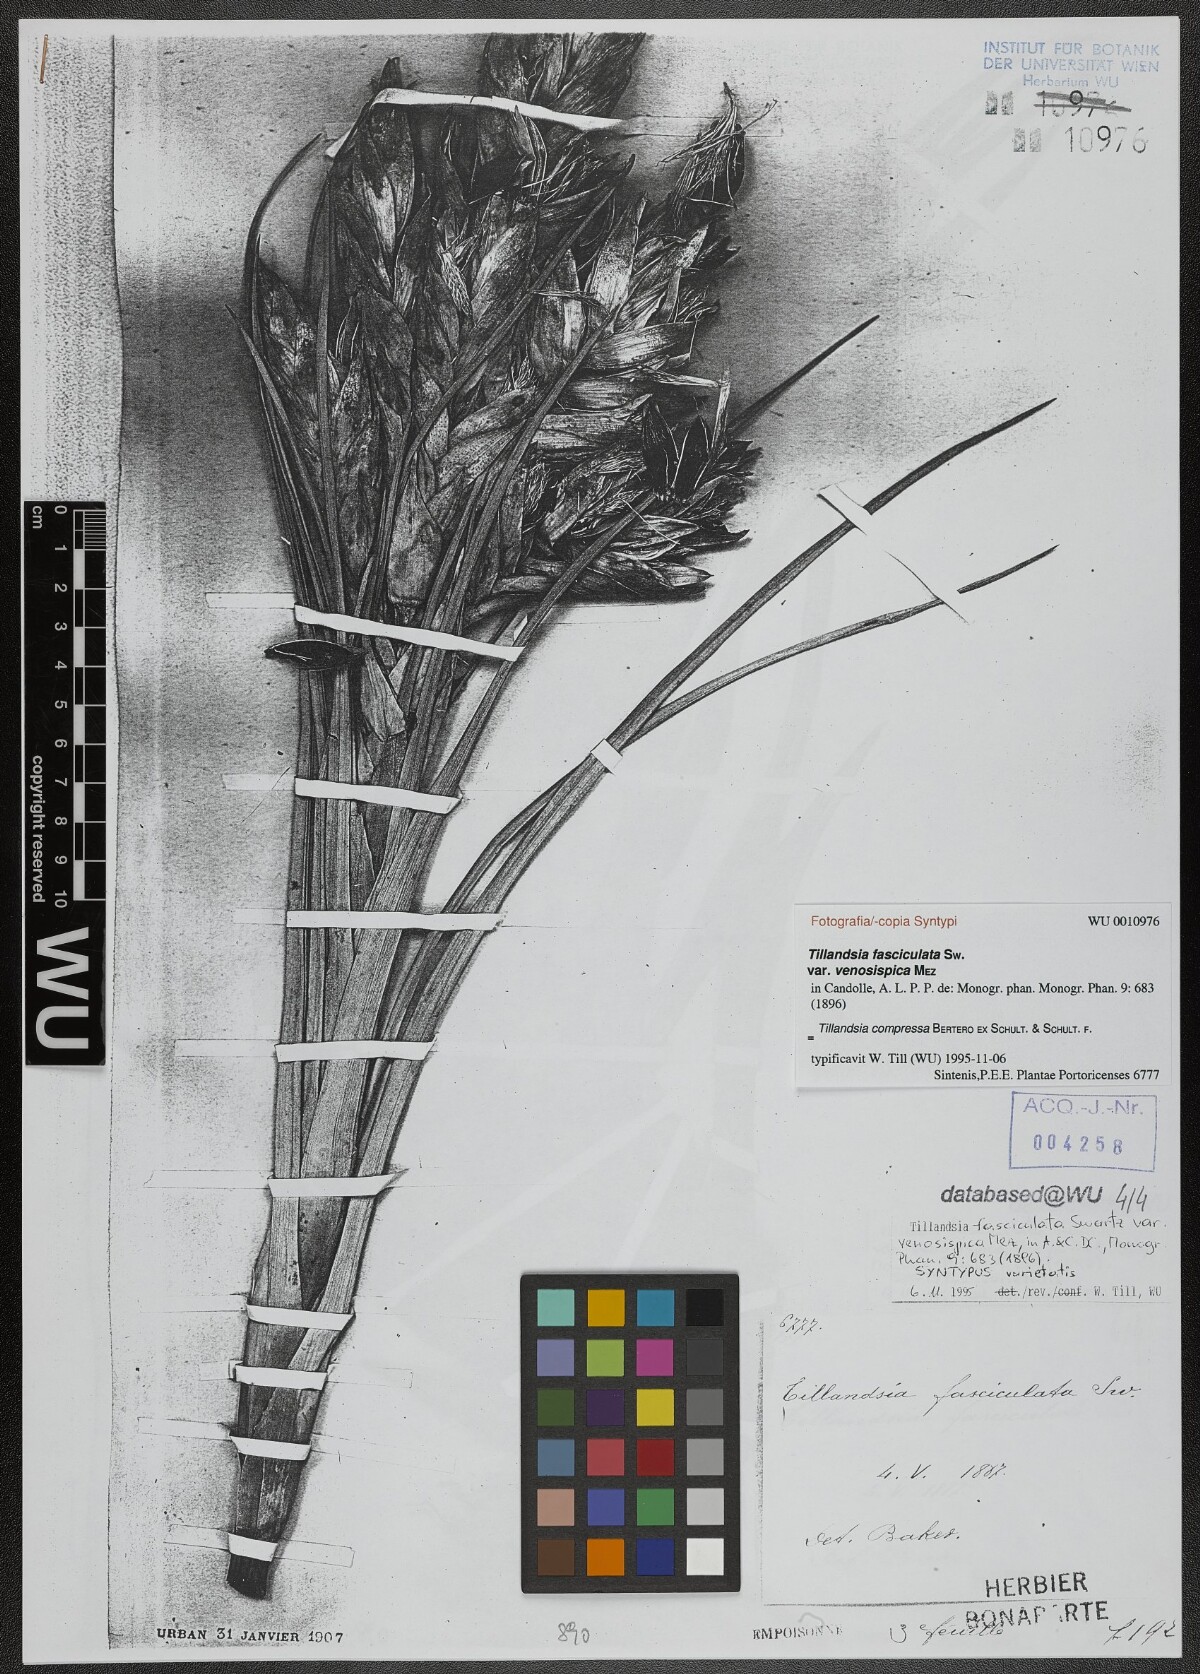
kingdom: Plantae
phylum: Tracheophyta
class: Liliopsida
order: Poales
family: Bromeliaceae
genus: Tillandsia
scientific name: Tillandsia compressa
